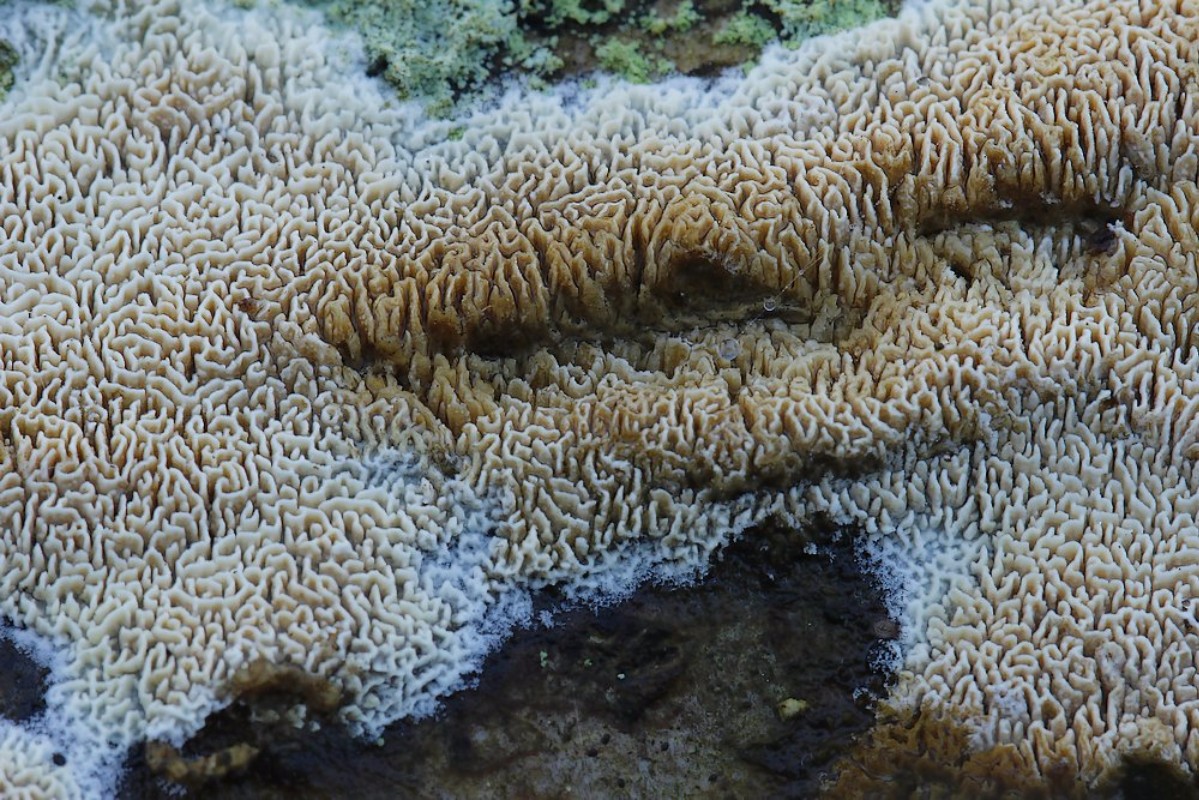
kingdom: Fungi
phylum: Basidiomycota
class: Agaricomycetes
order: Hymenochaetales
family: Schizoporaceae
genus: Xylodon
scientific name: Xylodon subtropicus
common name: labyrint-tandsvamp
